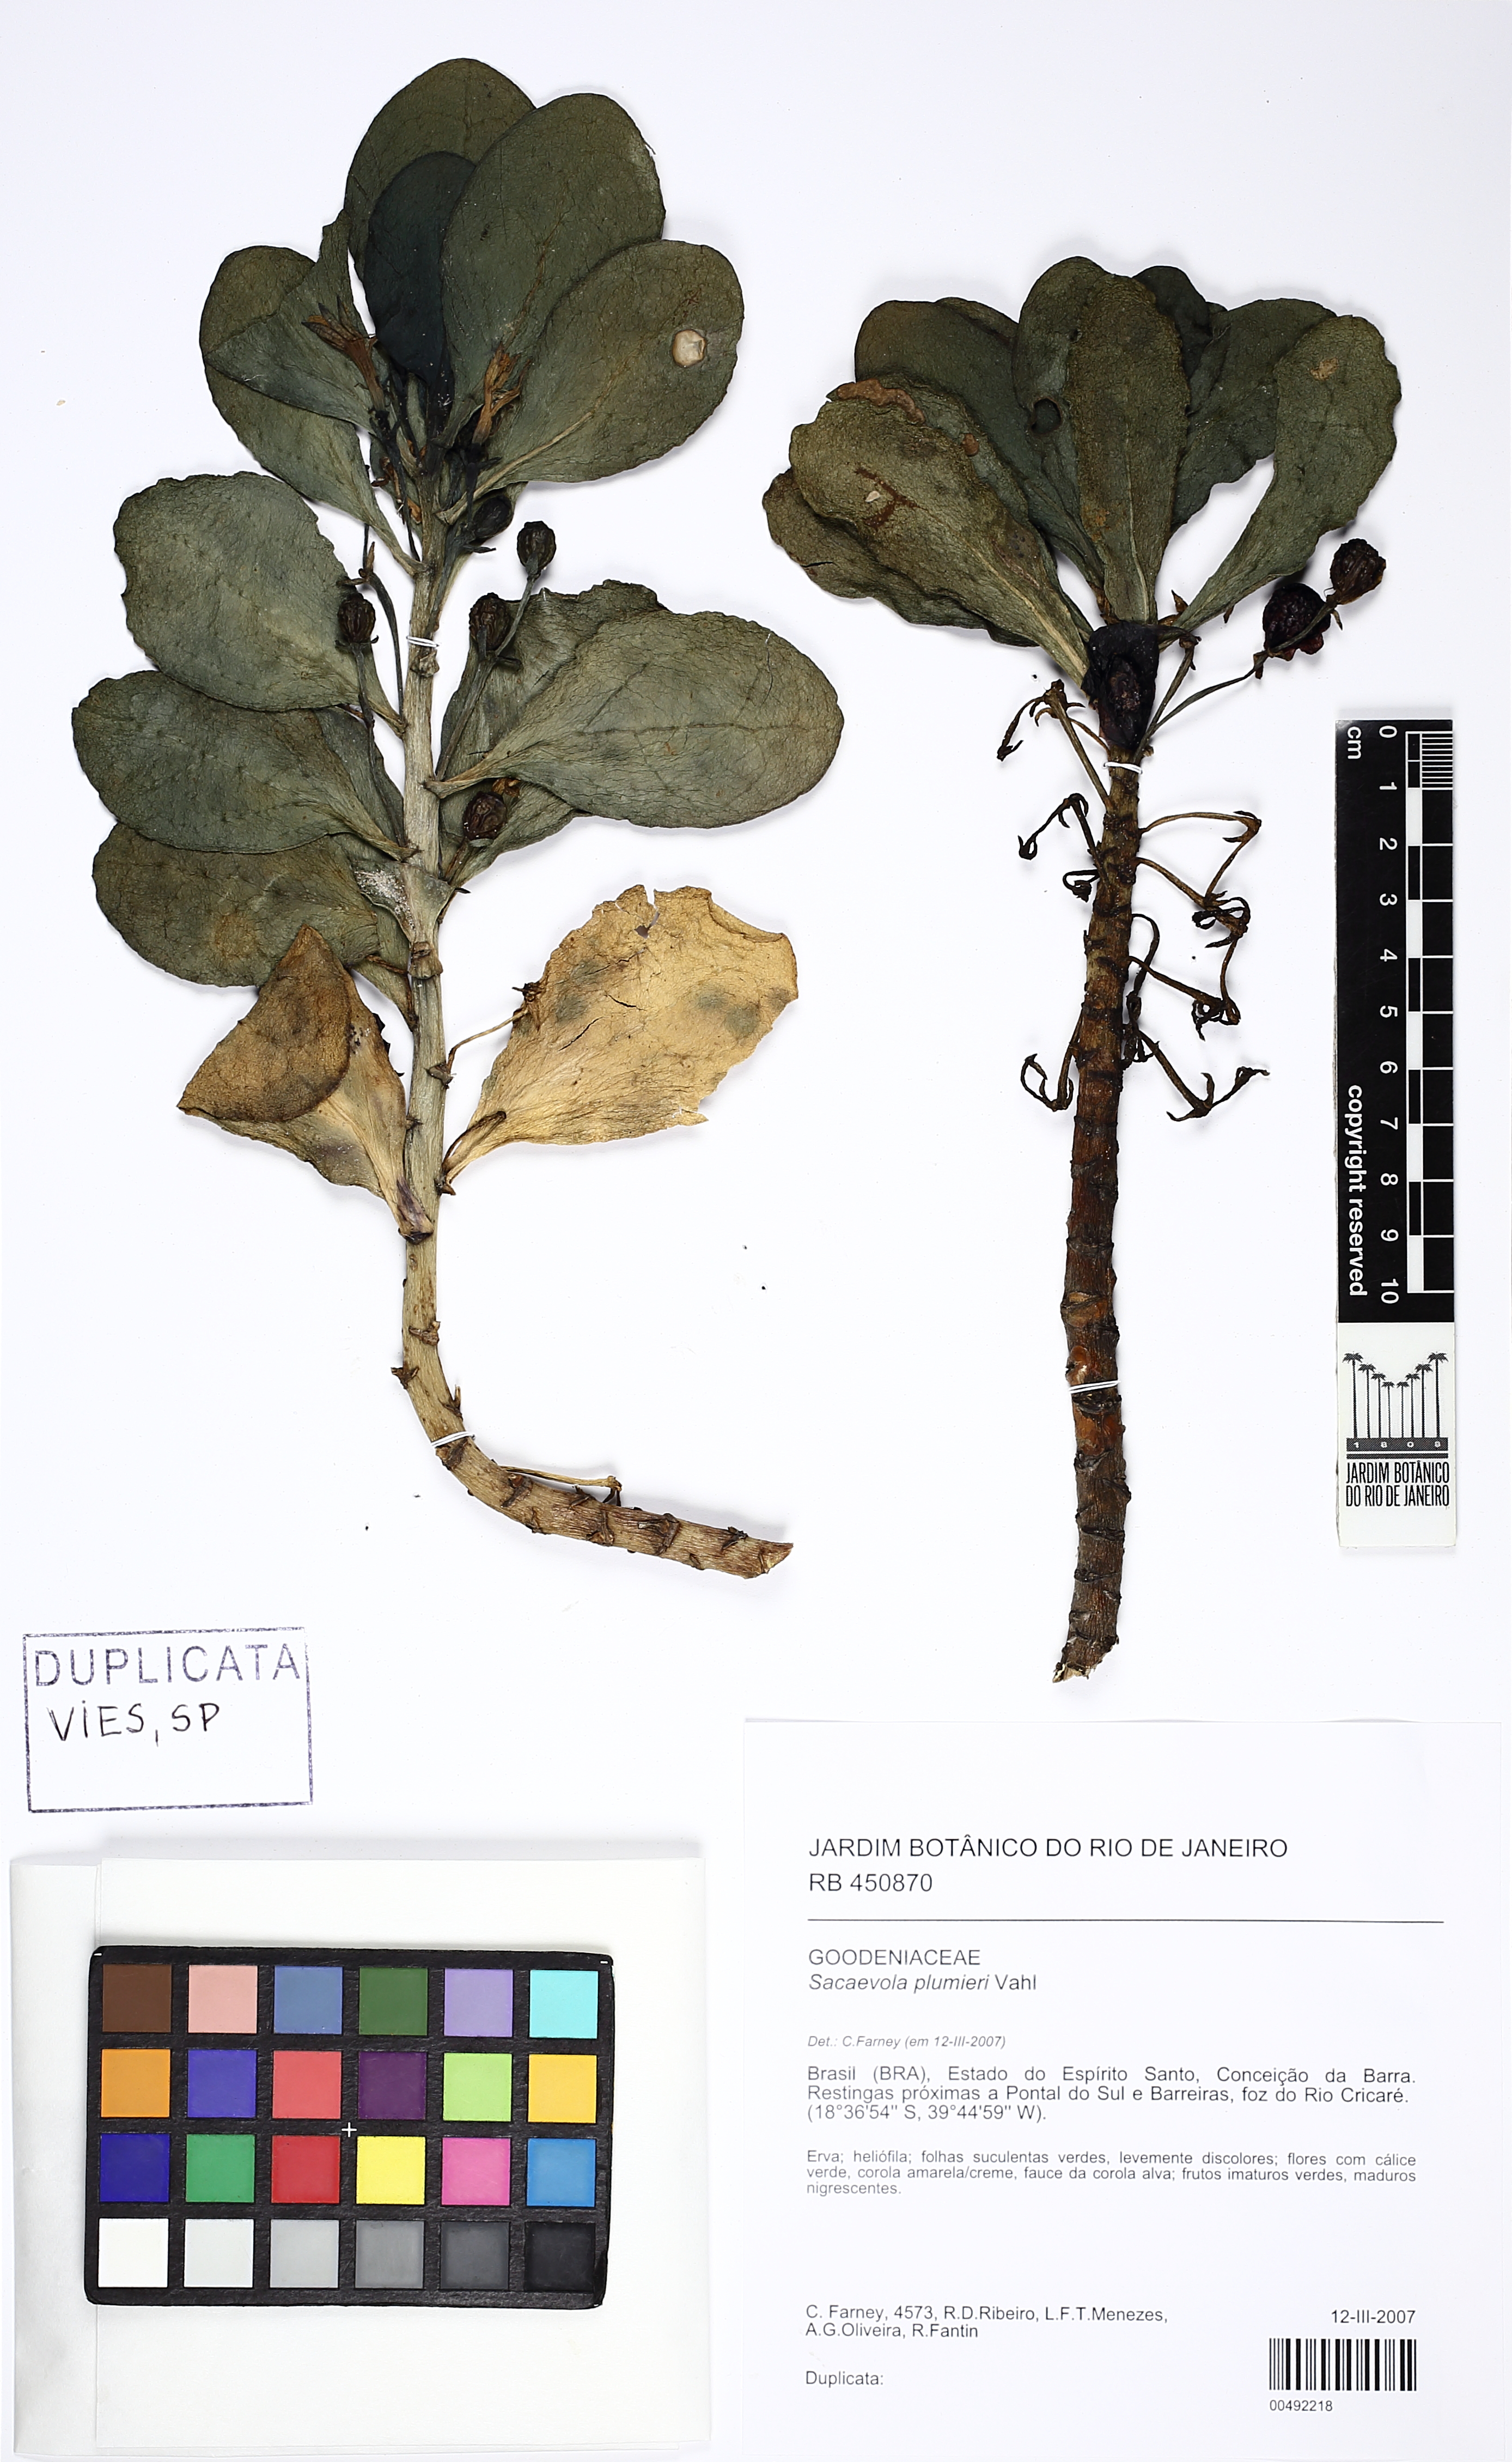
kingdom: Plantae
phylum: Tracheophyta
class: Magnoliopsida
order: Asterales
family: Goodeniaceae
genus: Scaevola
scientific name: Scaevola plumieri
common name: Gull feed
